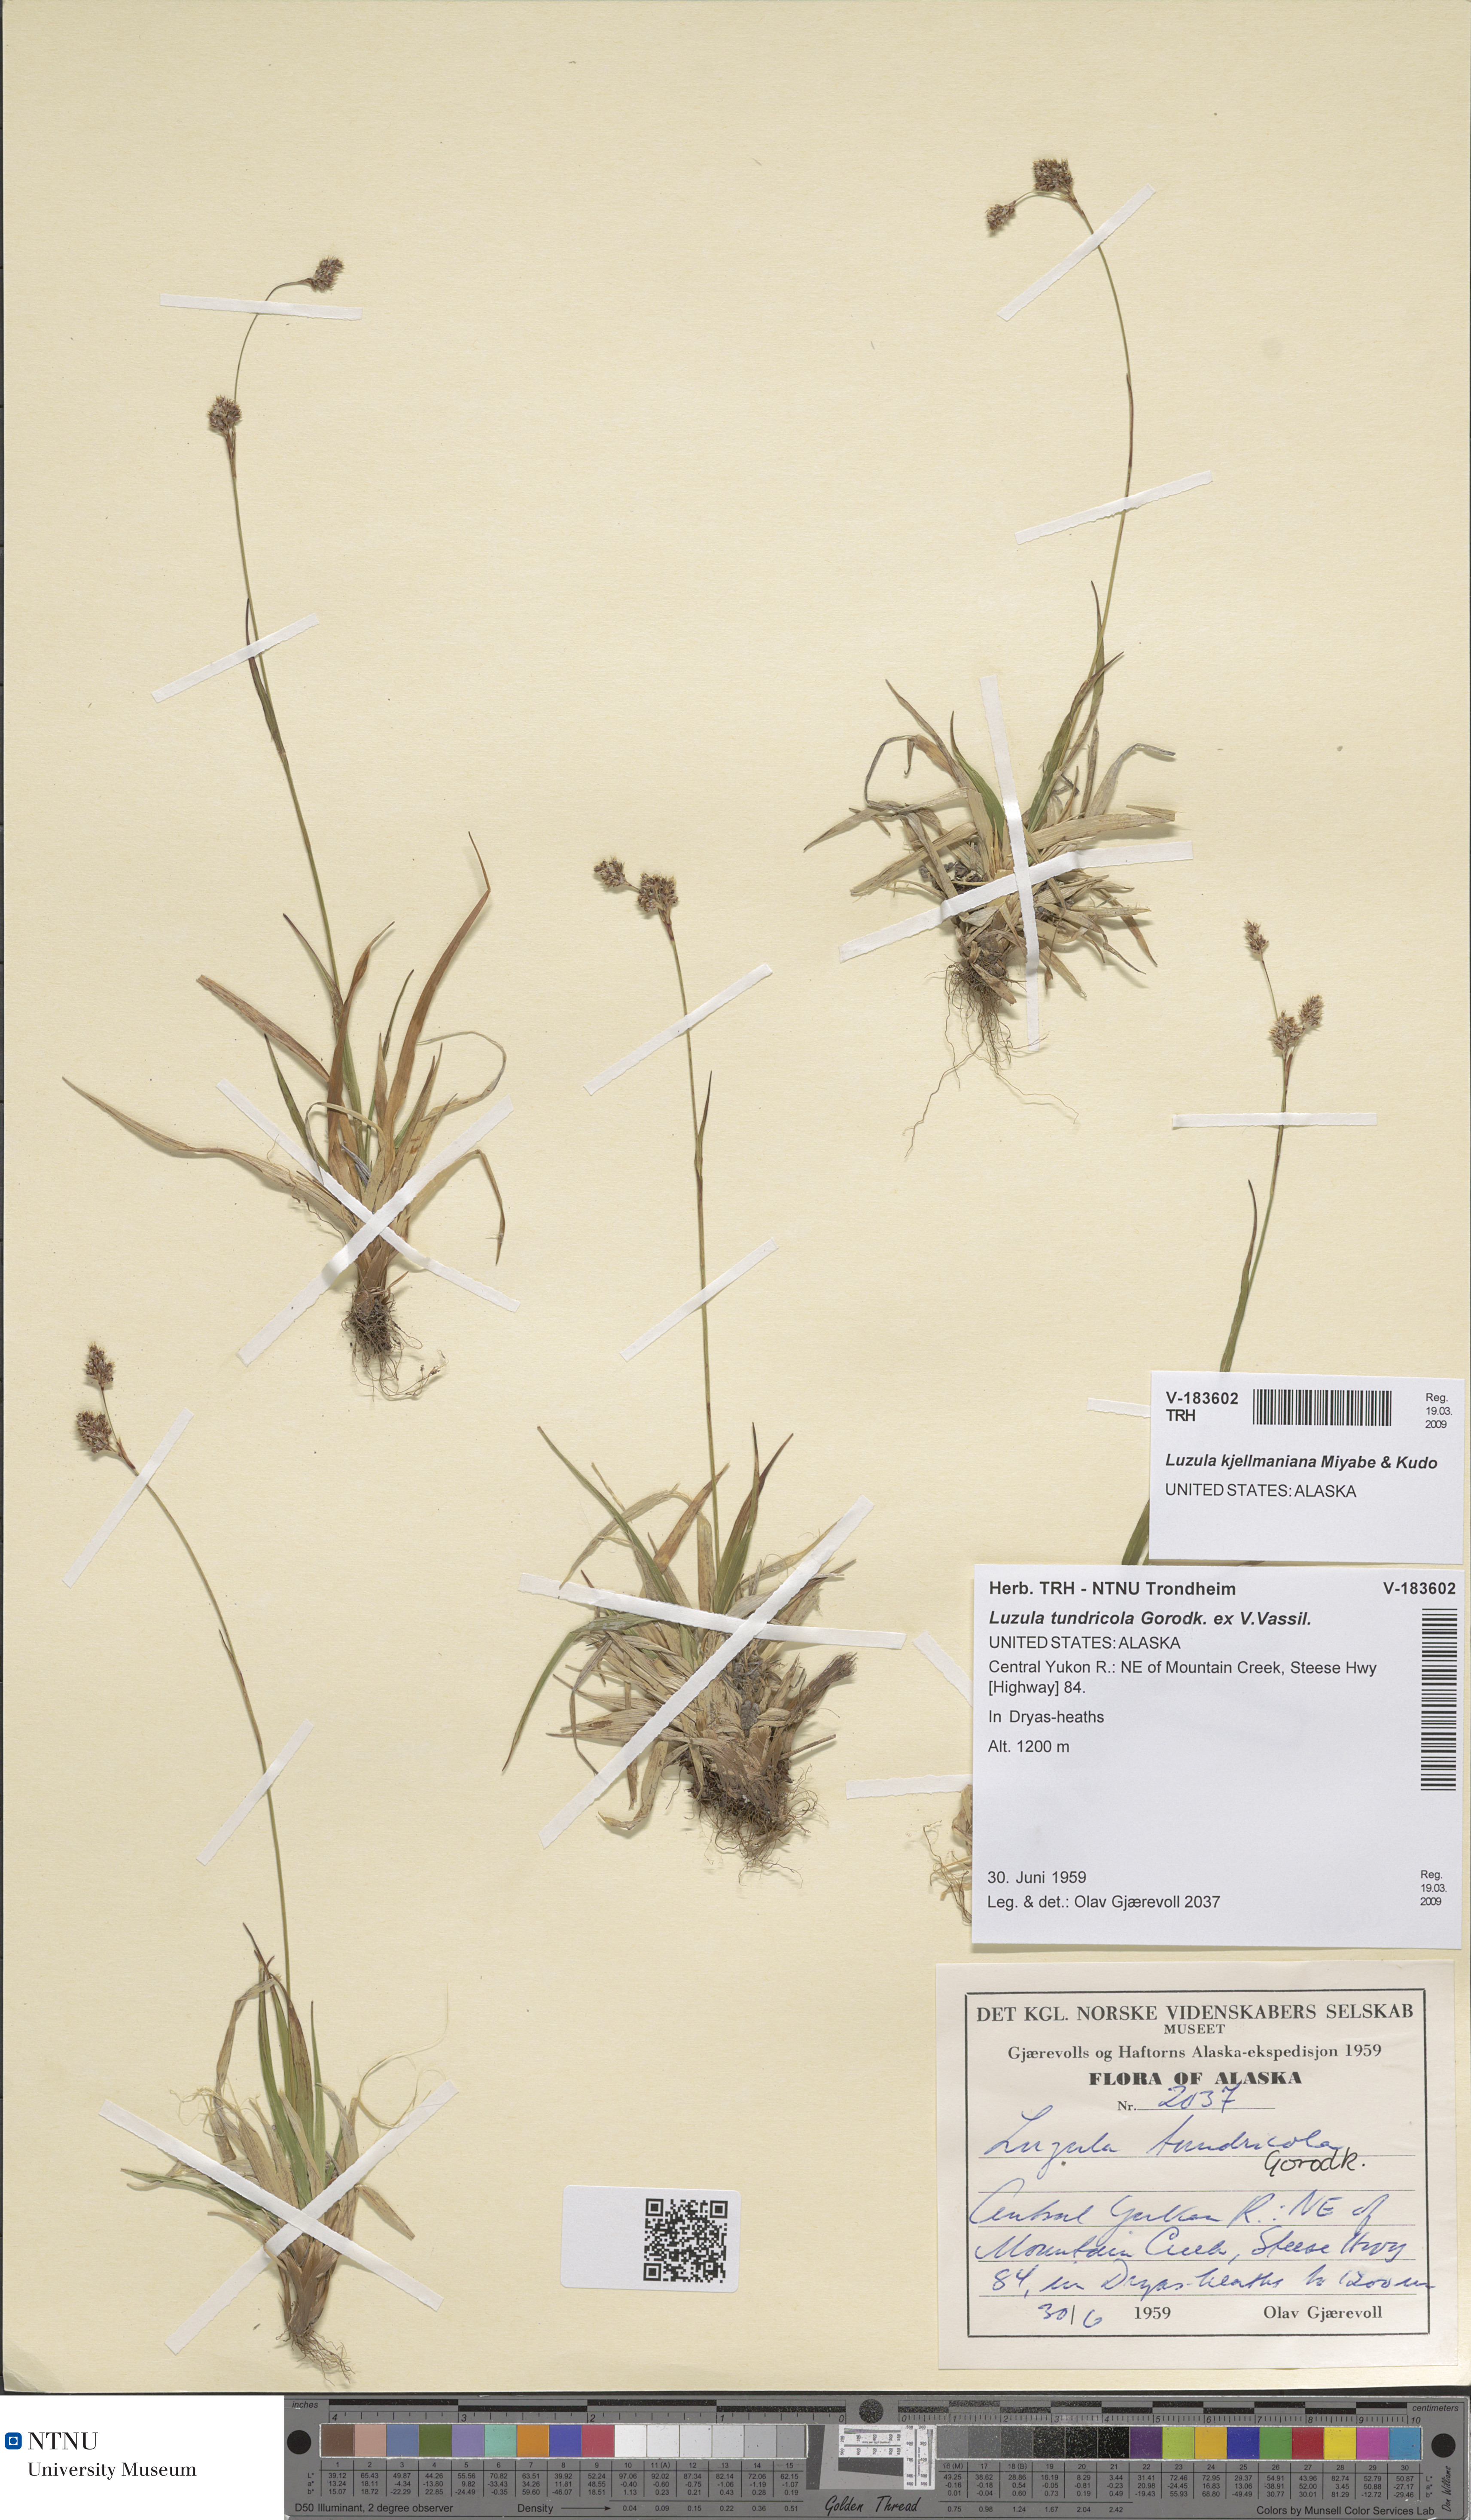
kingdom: Plantae
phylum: Tracheophyta
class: Liliopsida
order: Poales
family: Juncaceae
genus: Luzula
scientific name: Luzula kjellmaniana
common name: Kjellman's woodrush
